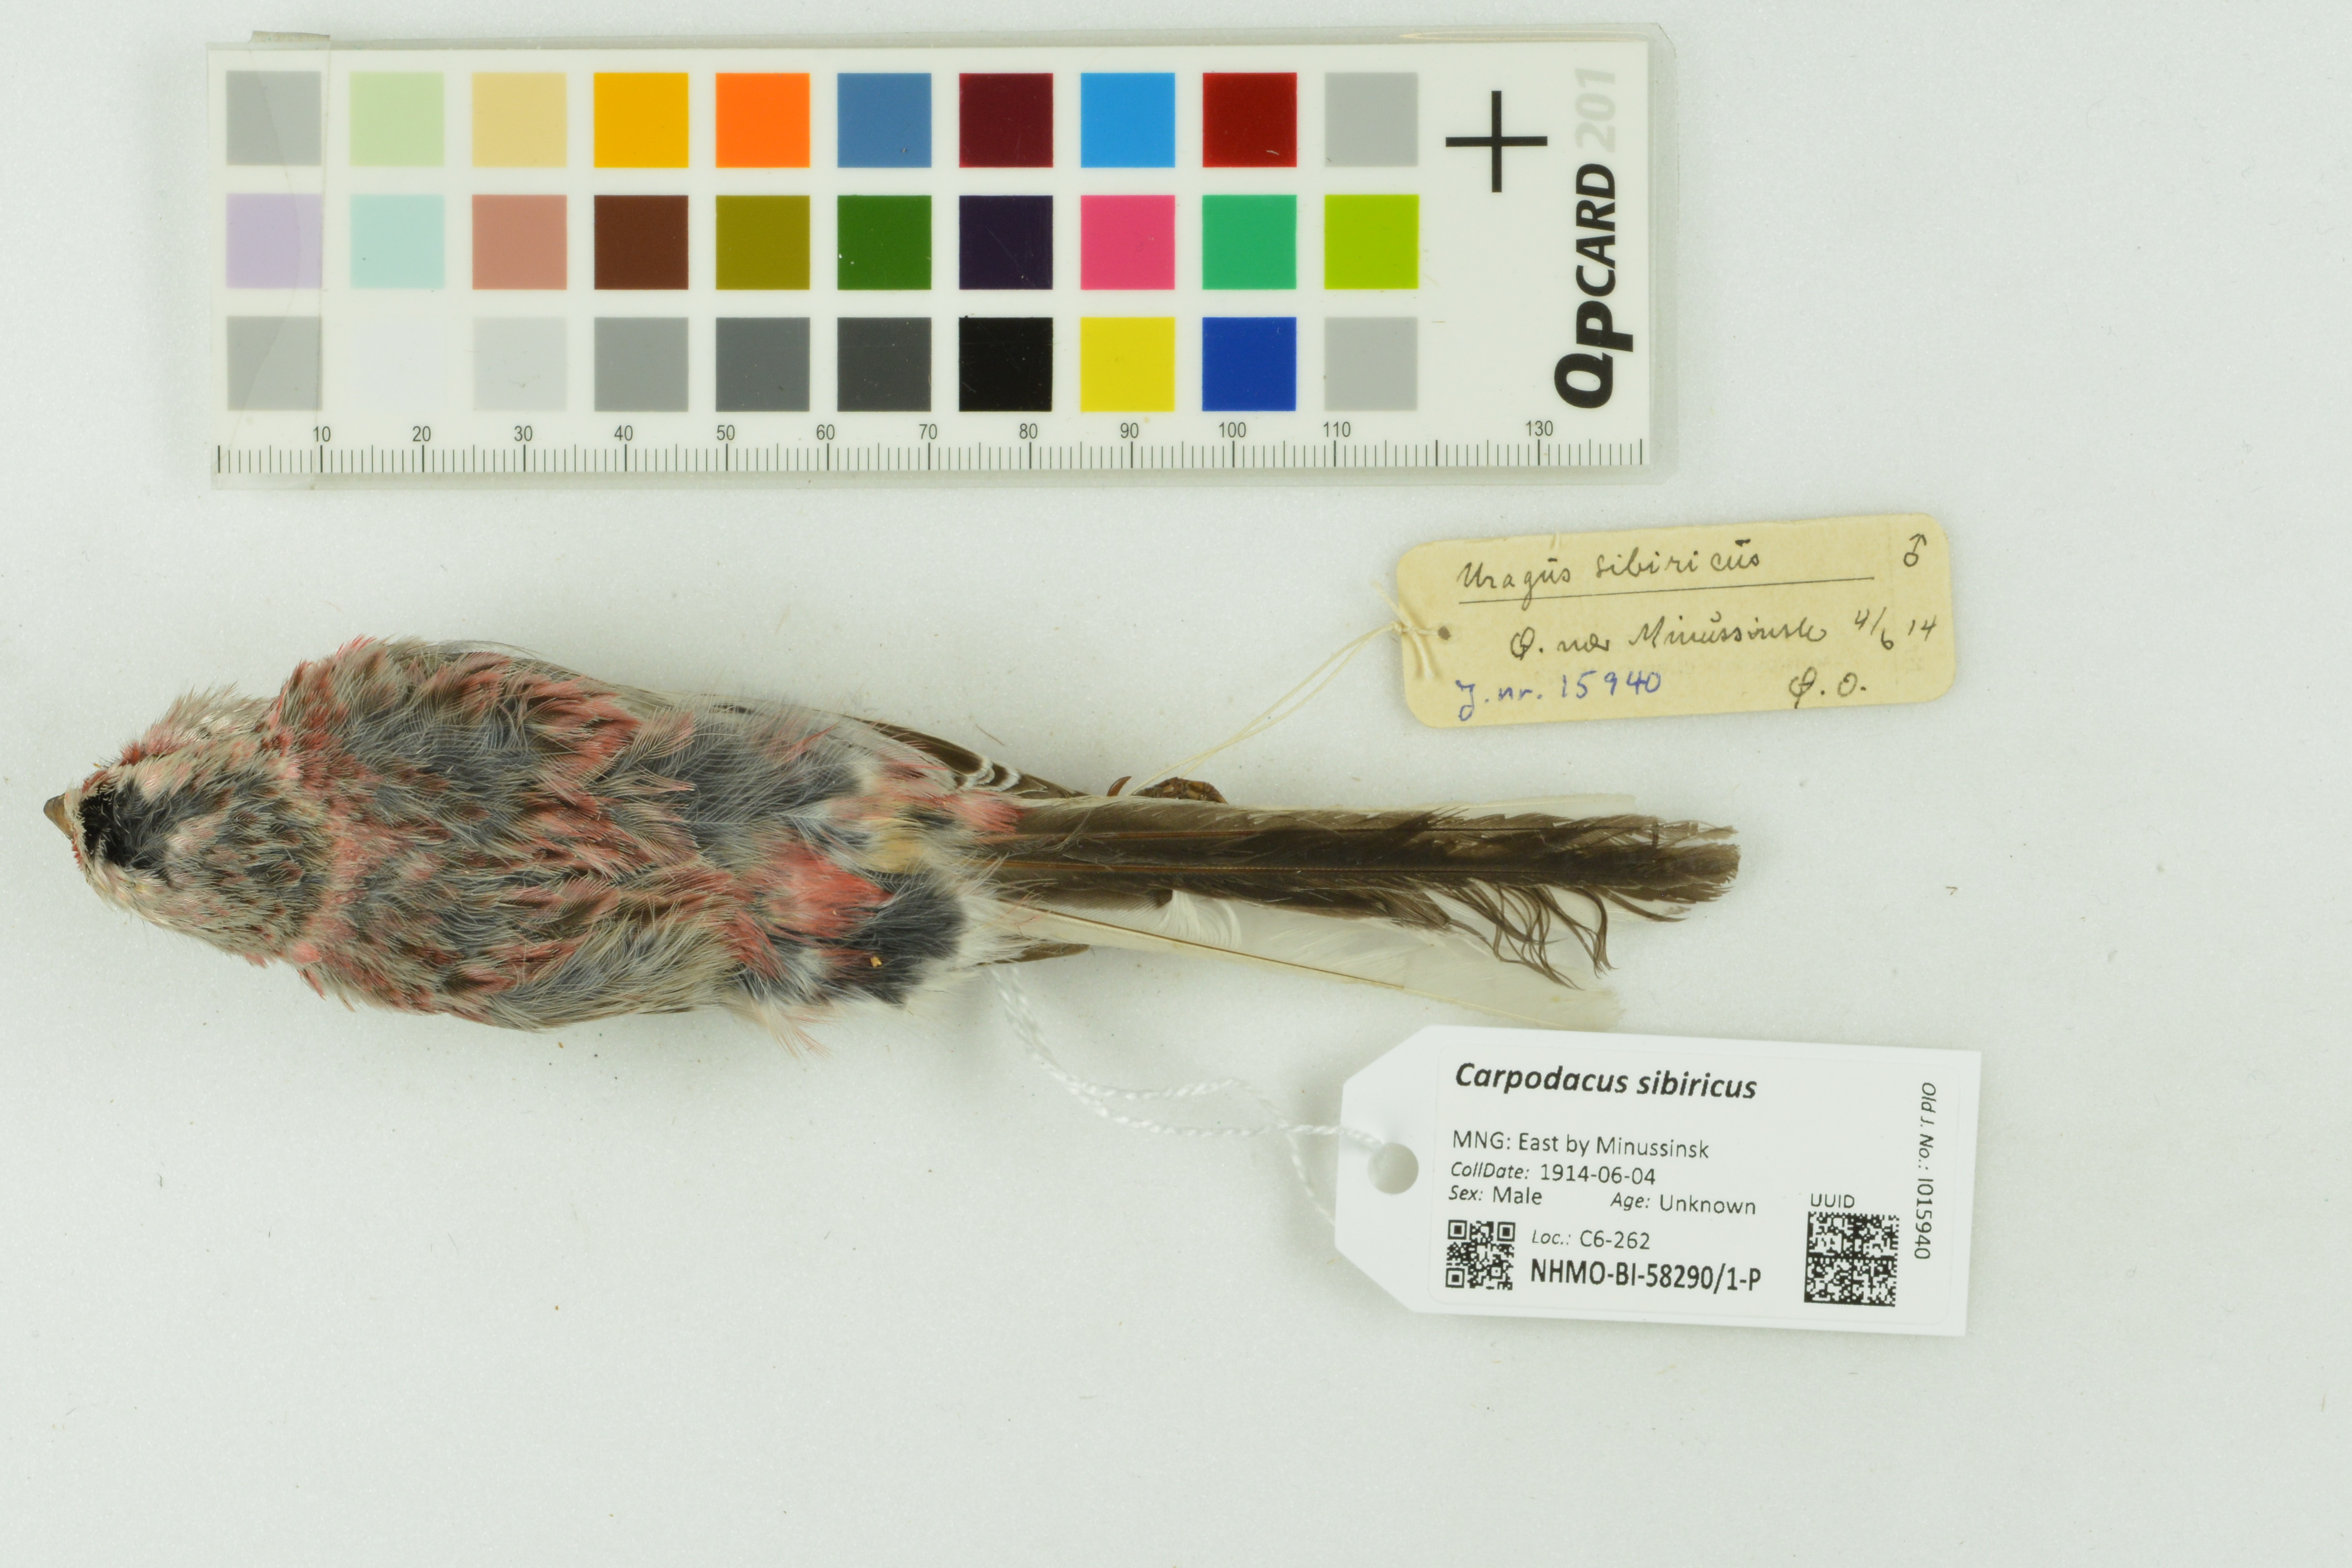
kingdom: Animalia
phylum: Chordata
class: Aves
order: Passeriformes
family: Fringillidae
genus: Carpodacus
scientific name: Carpodacus sibiricus
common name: Long-tailed rosefinch
